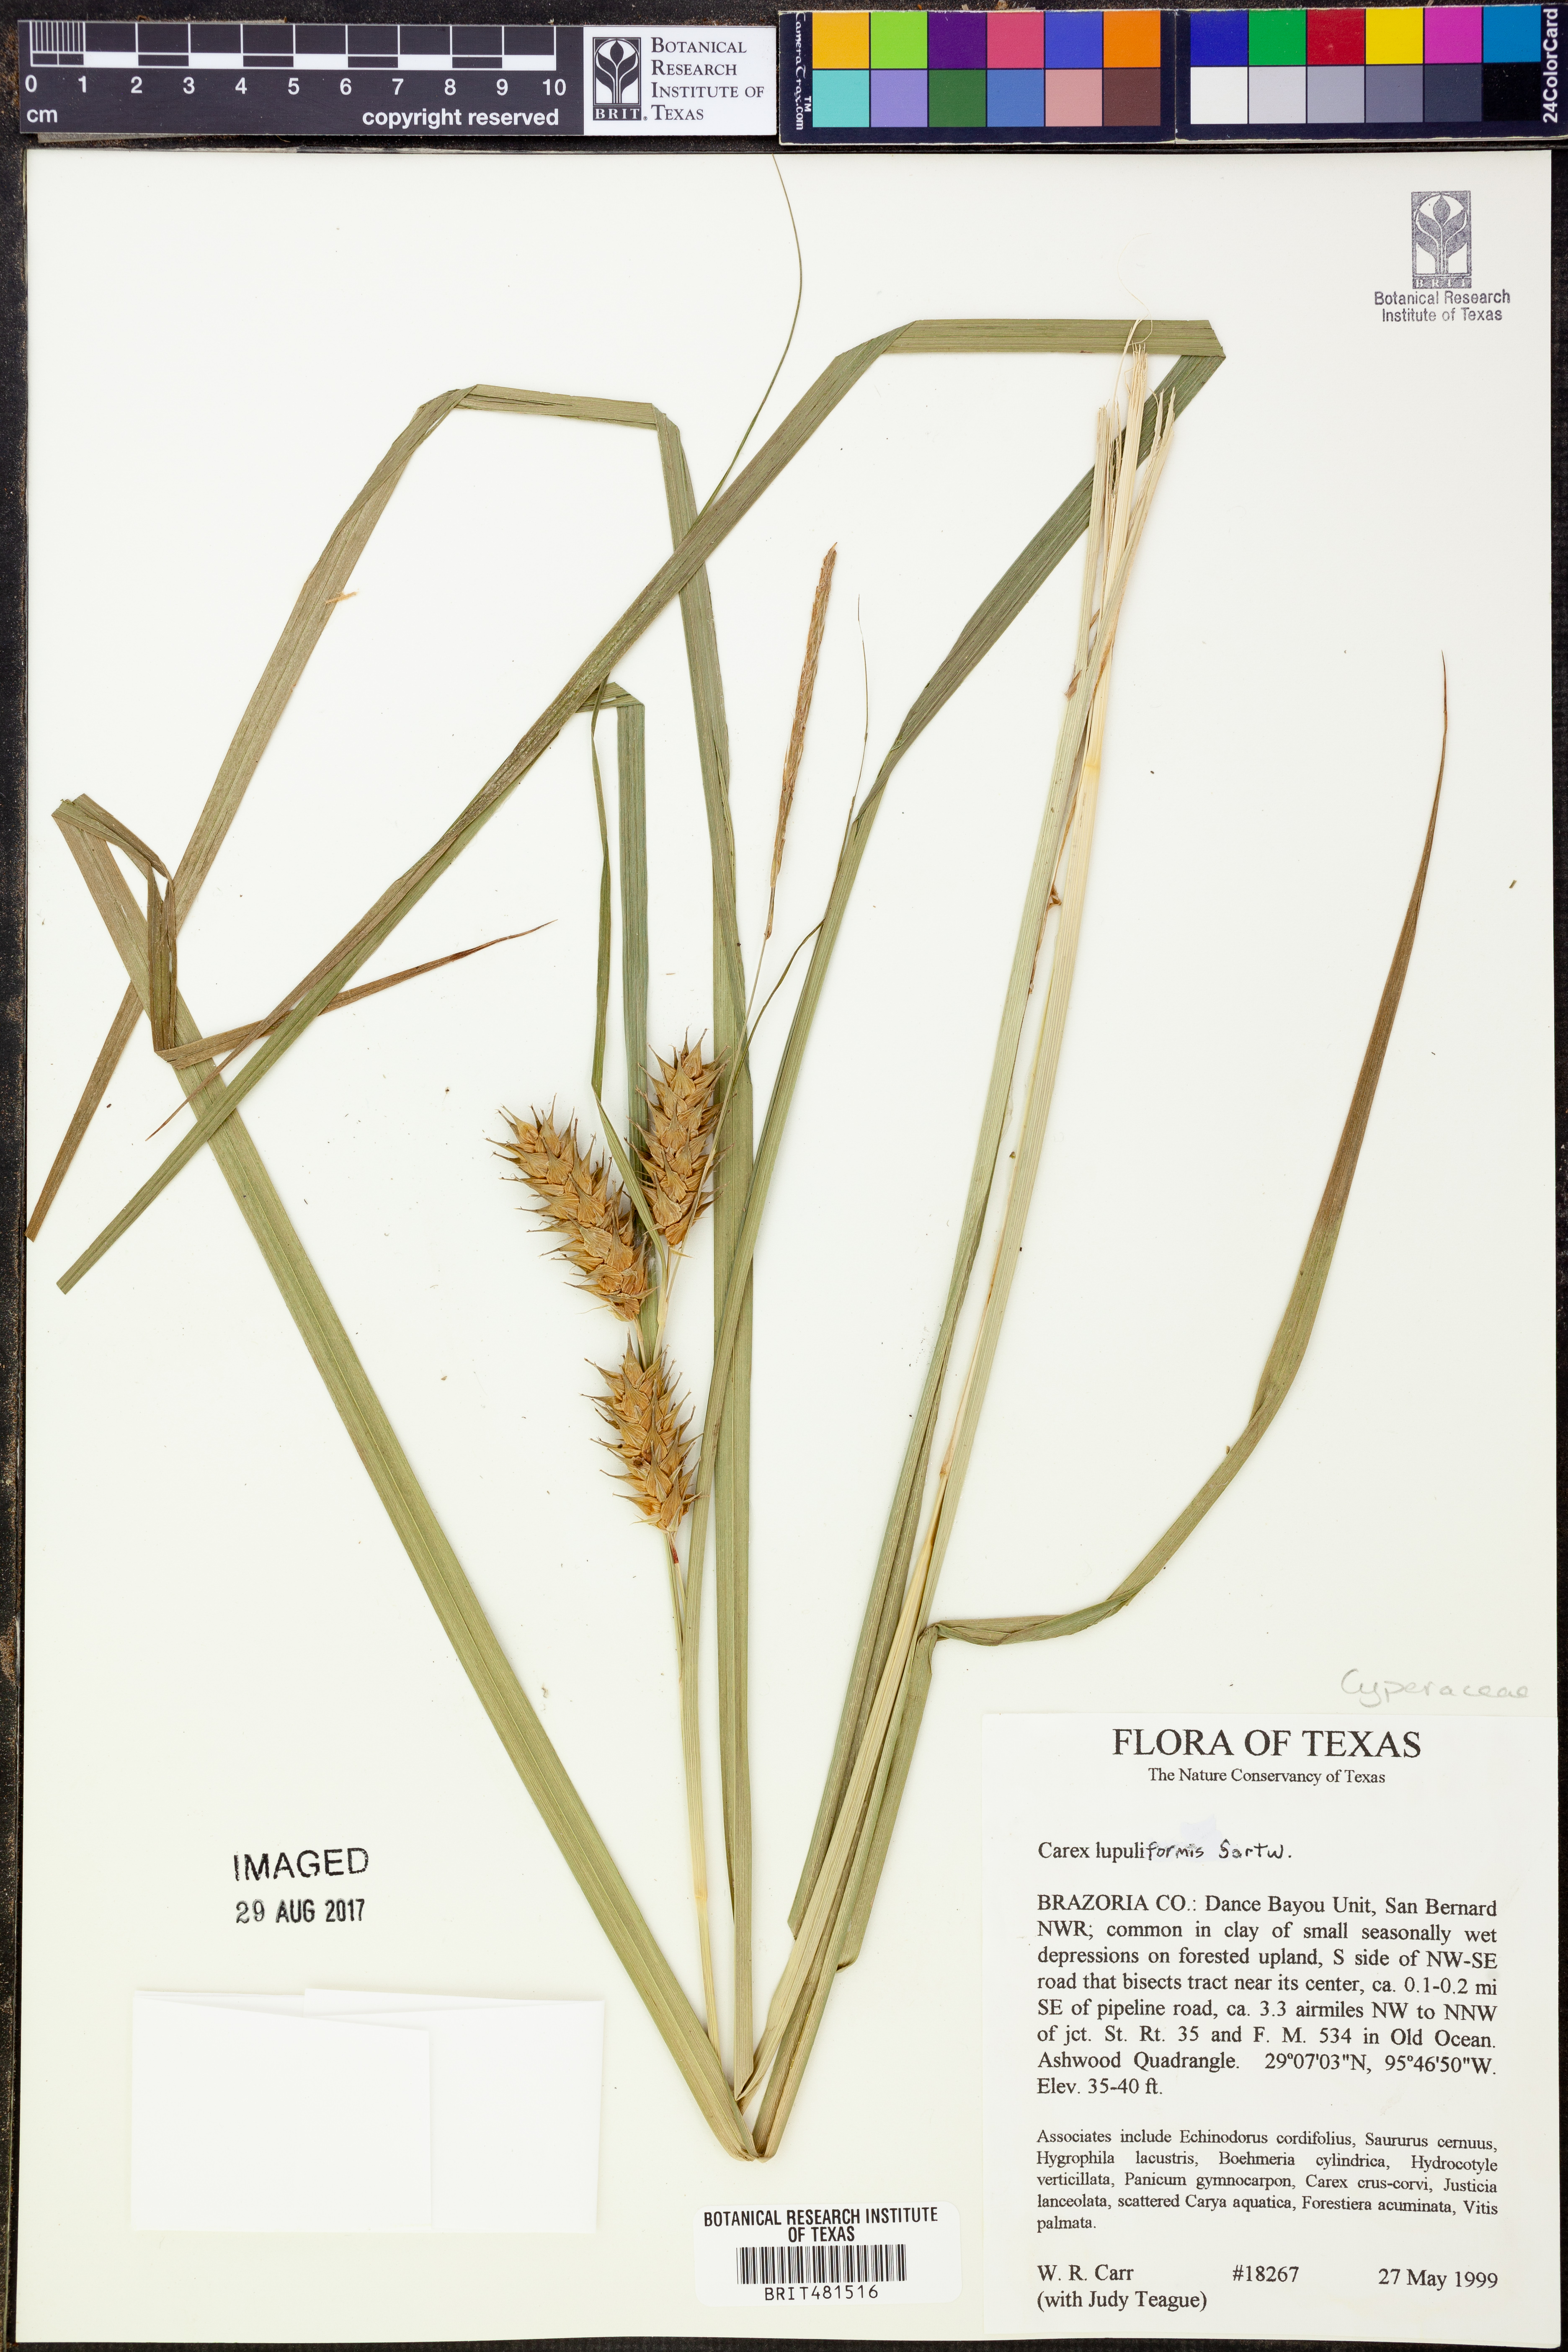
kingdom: Plantae
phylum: Tracheophyta
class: Liliopsida
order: Poales
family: Cyperaceae
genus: Carex
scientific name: Carex lupuliformis
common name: False hop sedge
